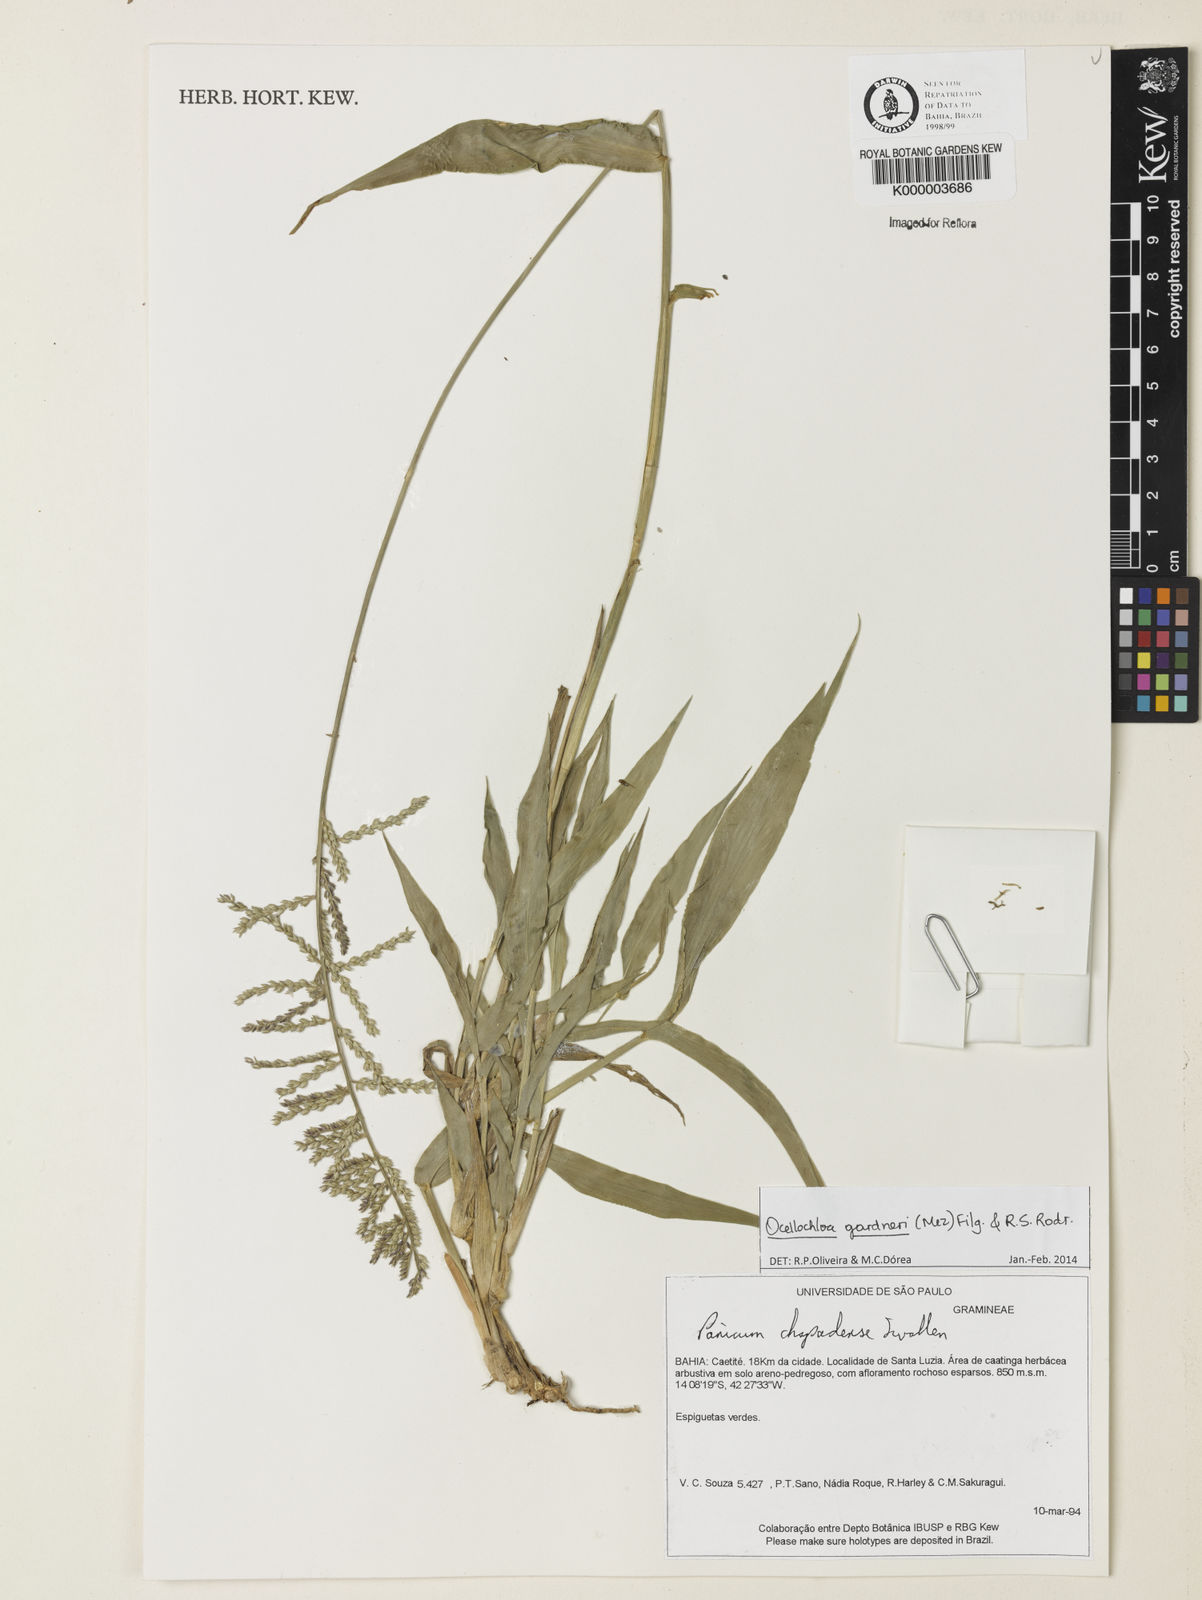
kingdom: Plantae
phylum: Tracheophyta
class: Liliopsida
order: Poales
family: Poaceae
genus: Ocellochloa
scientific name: Ocellochloa chapadensis
